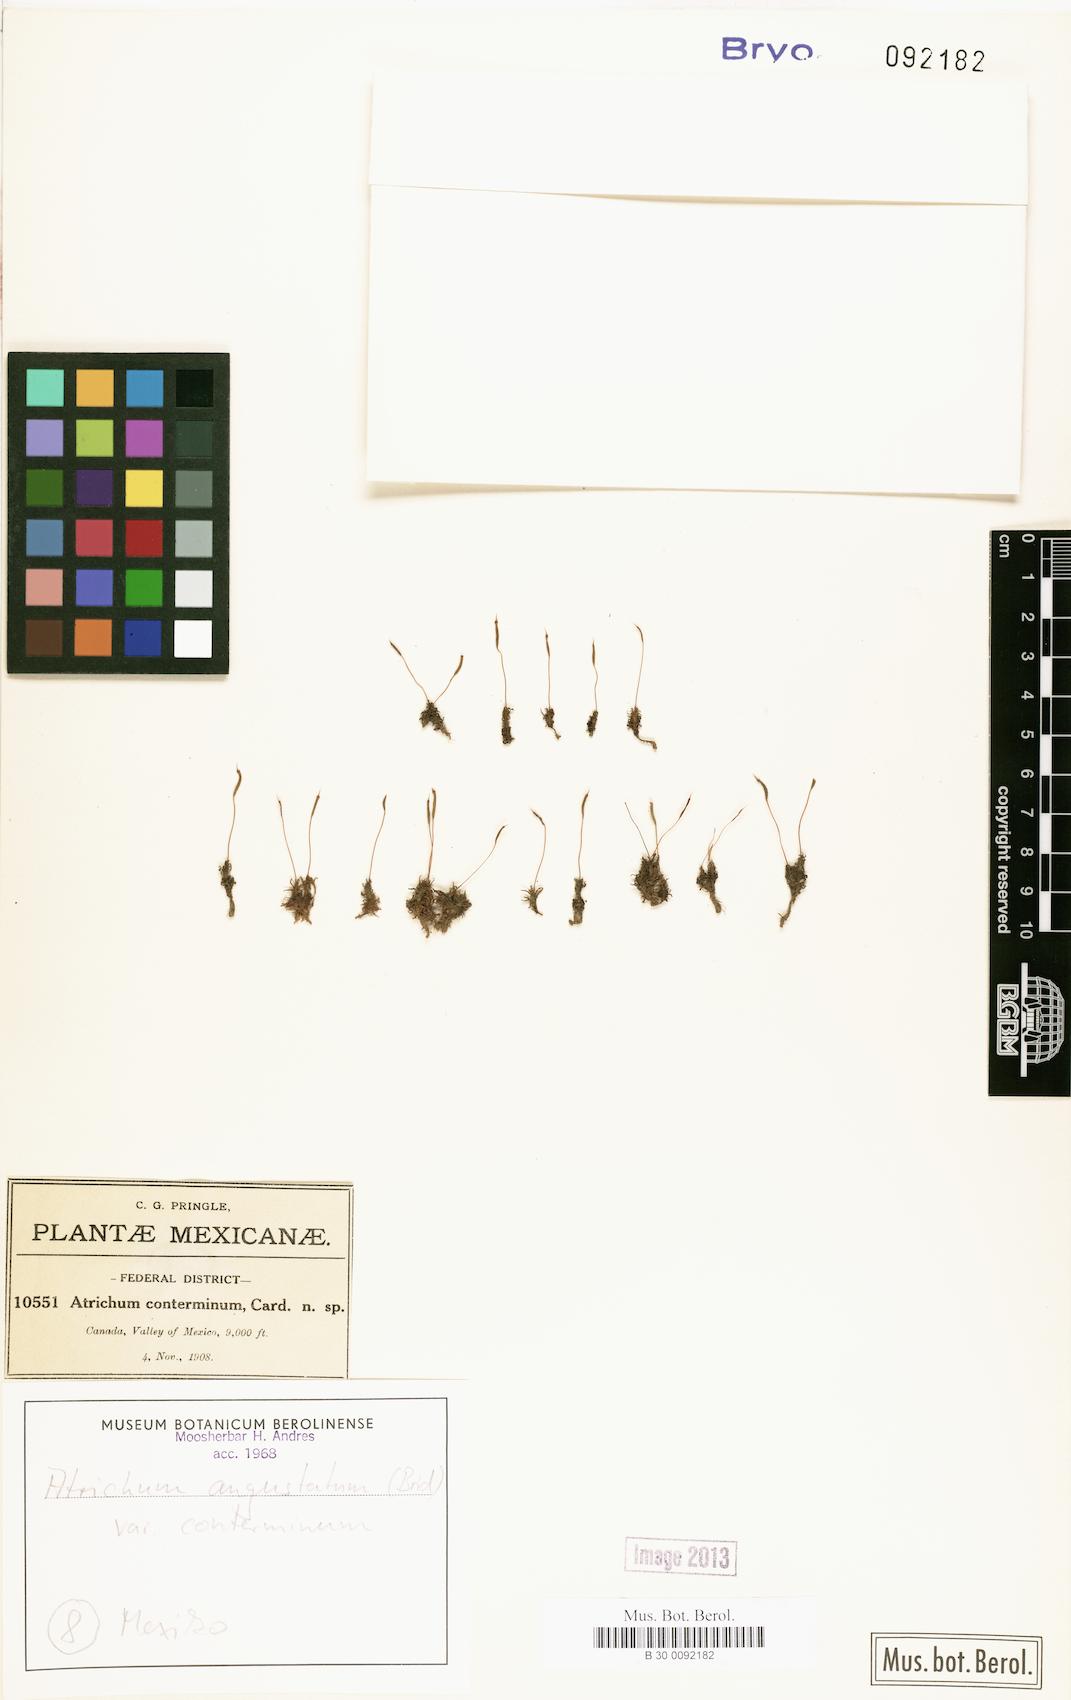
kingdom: Plantae
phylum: Bryophyta
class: Polytrichopsida
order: Polytrichales
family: Polytrichaceae
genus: Atrichum
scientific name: Atrichum rhystophyllum
